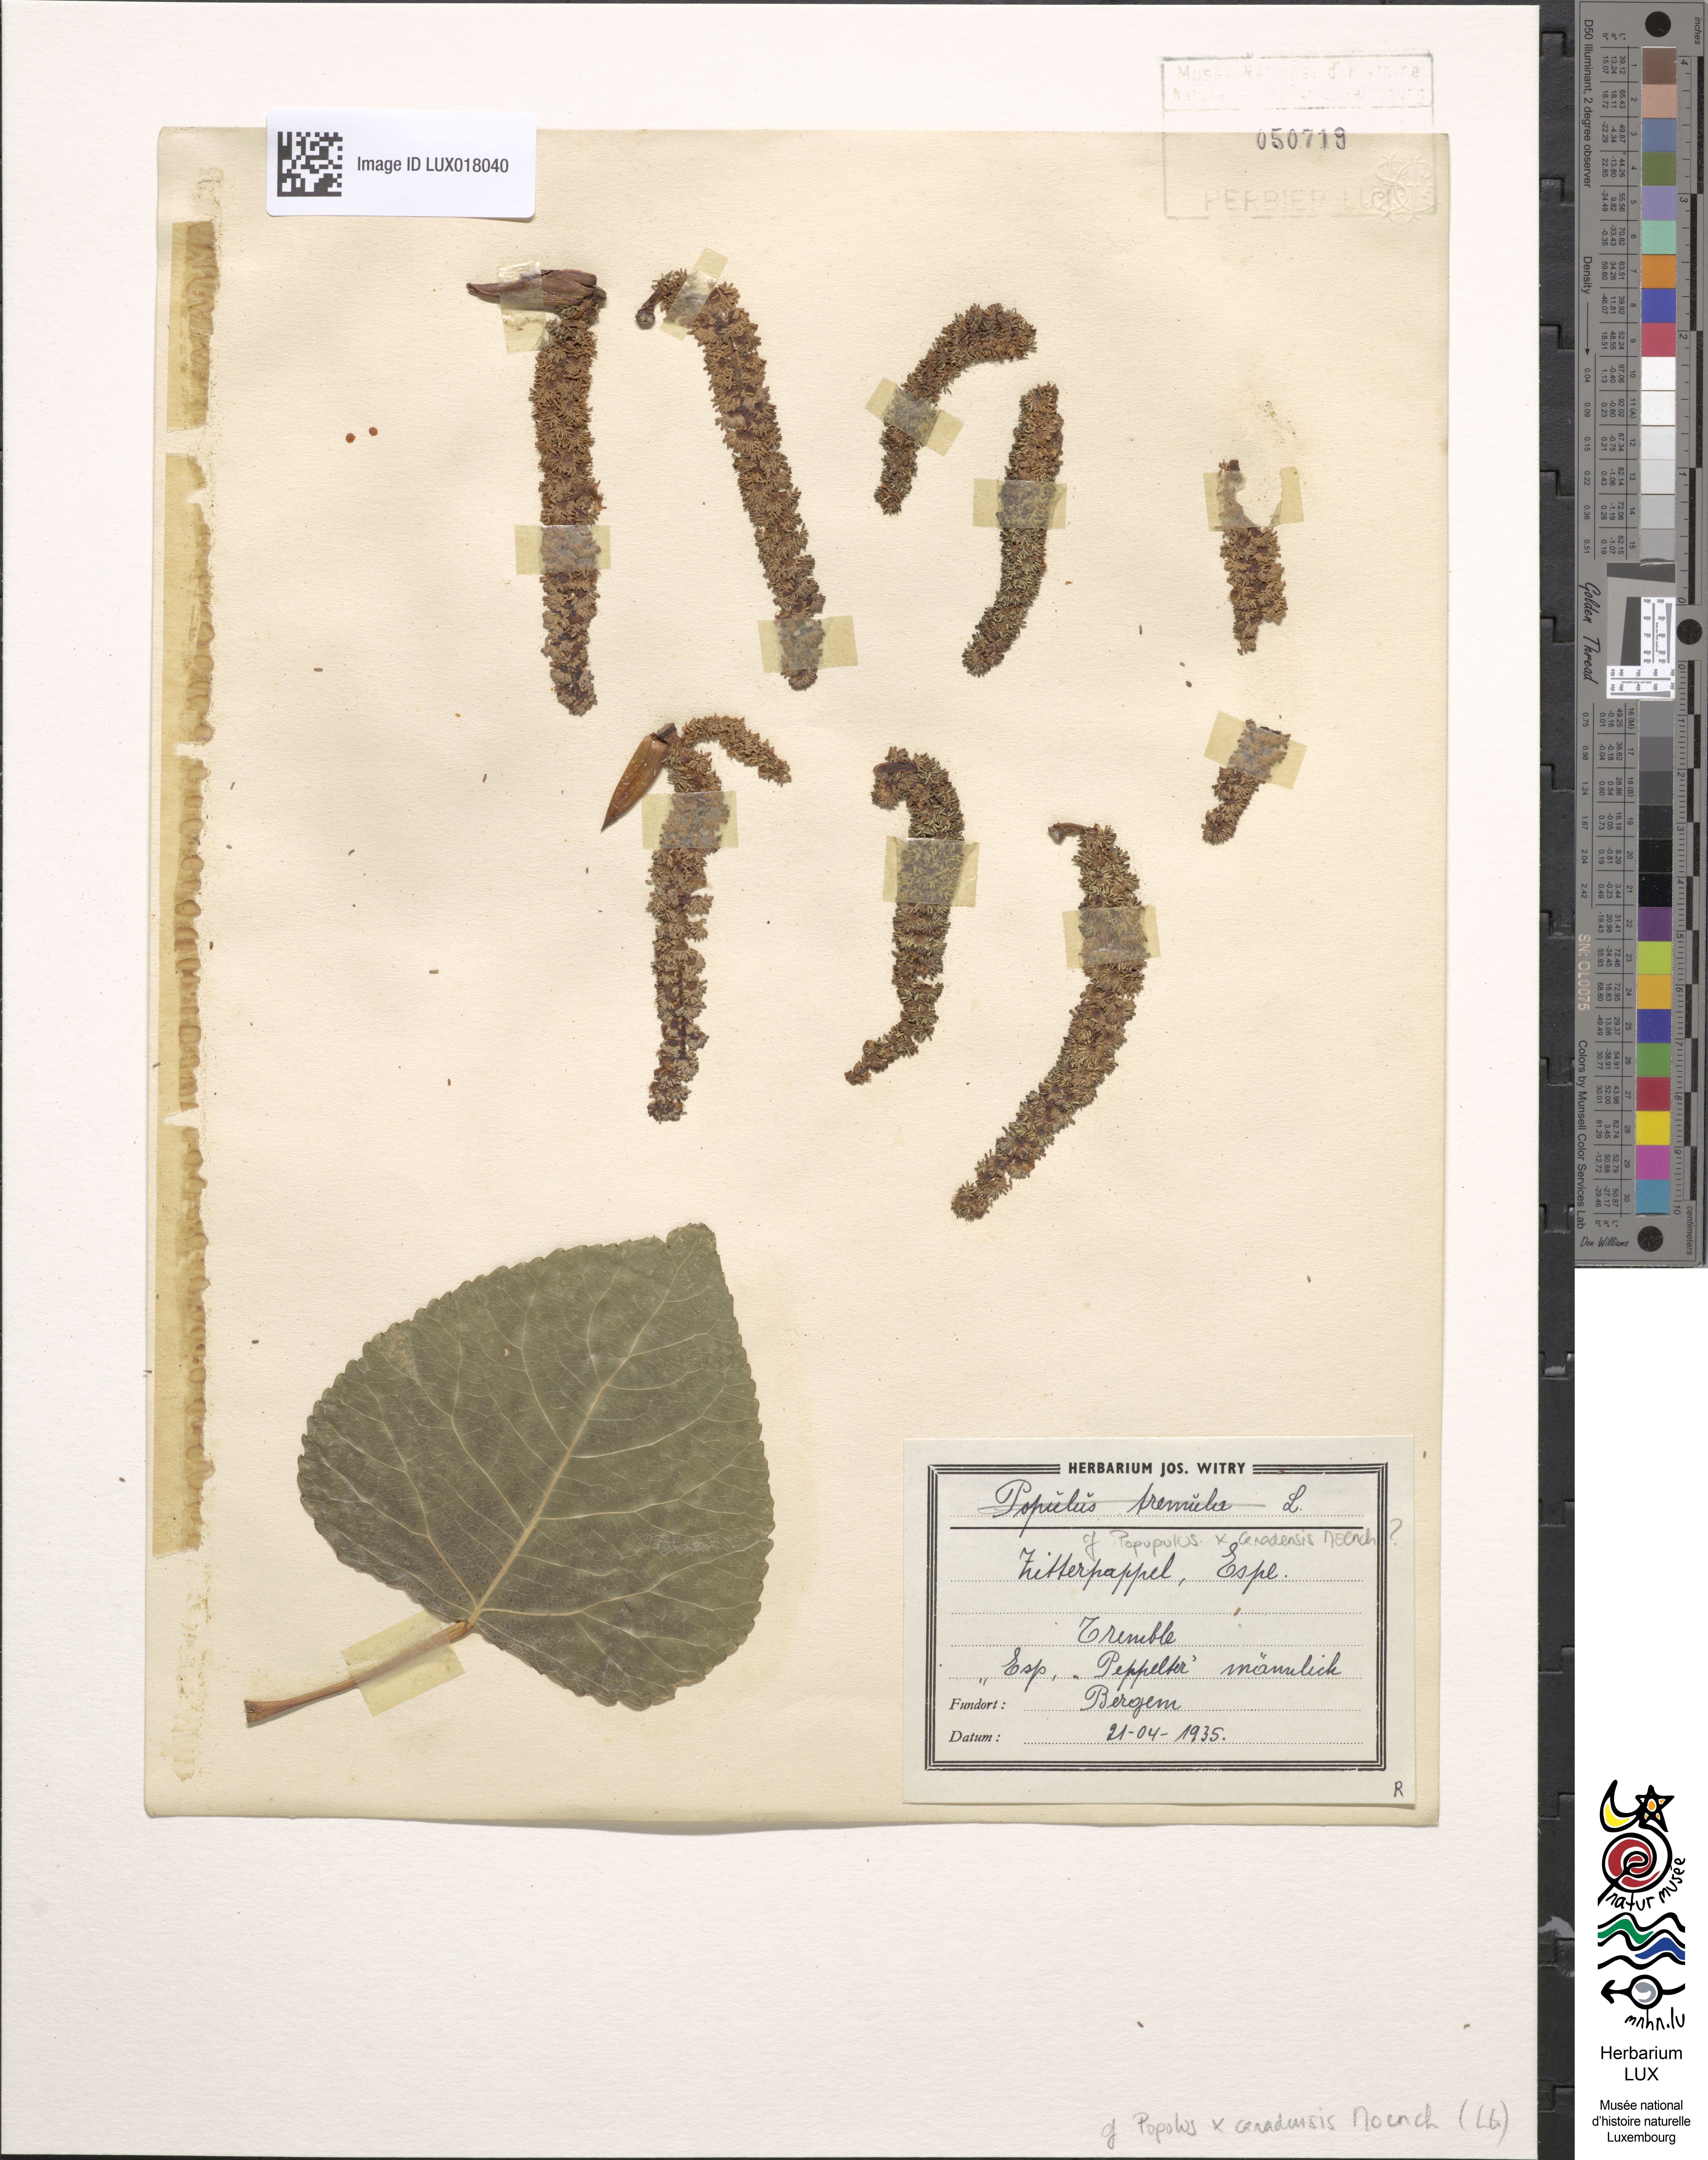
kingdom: Plantae
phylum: Tracheophyta
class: Magnoliopsida
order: Malpighiales
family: Salicaceae
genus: Populus
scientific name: Populus canadensis
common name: Carolina poplar
